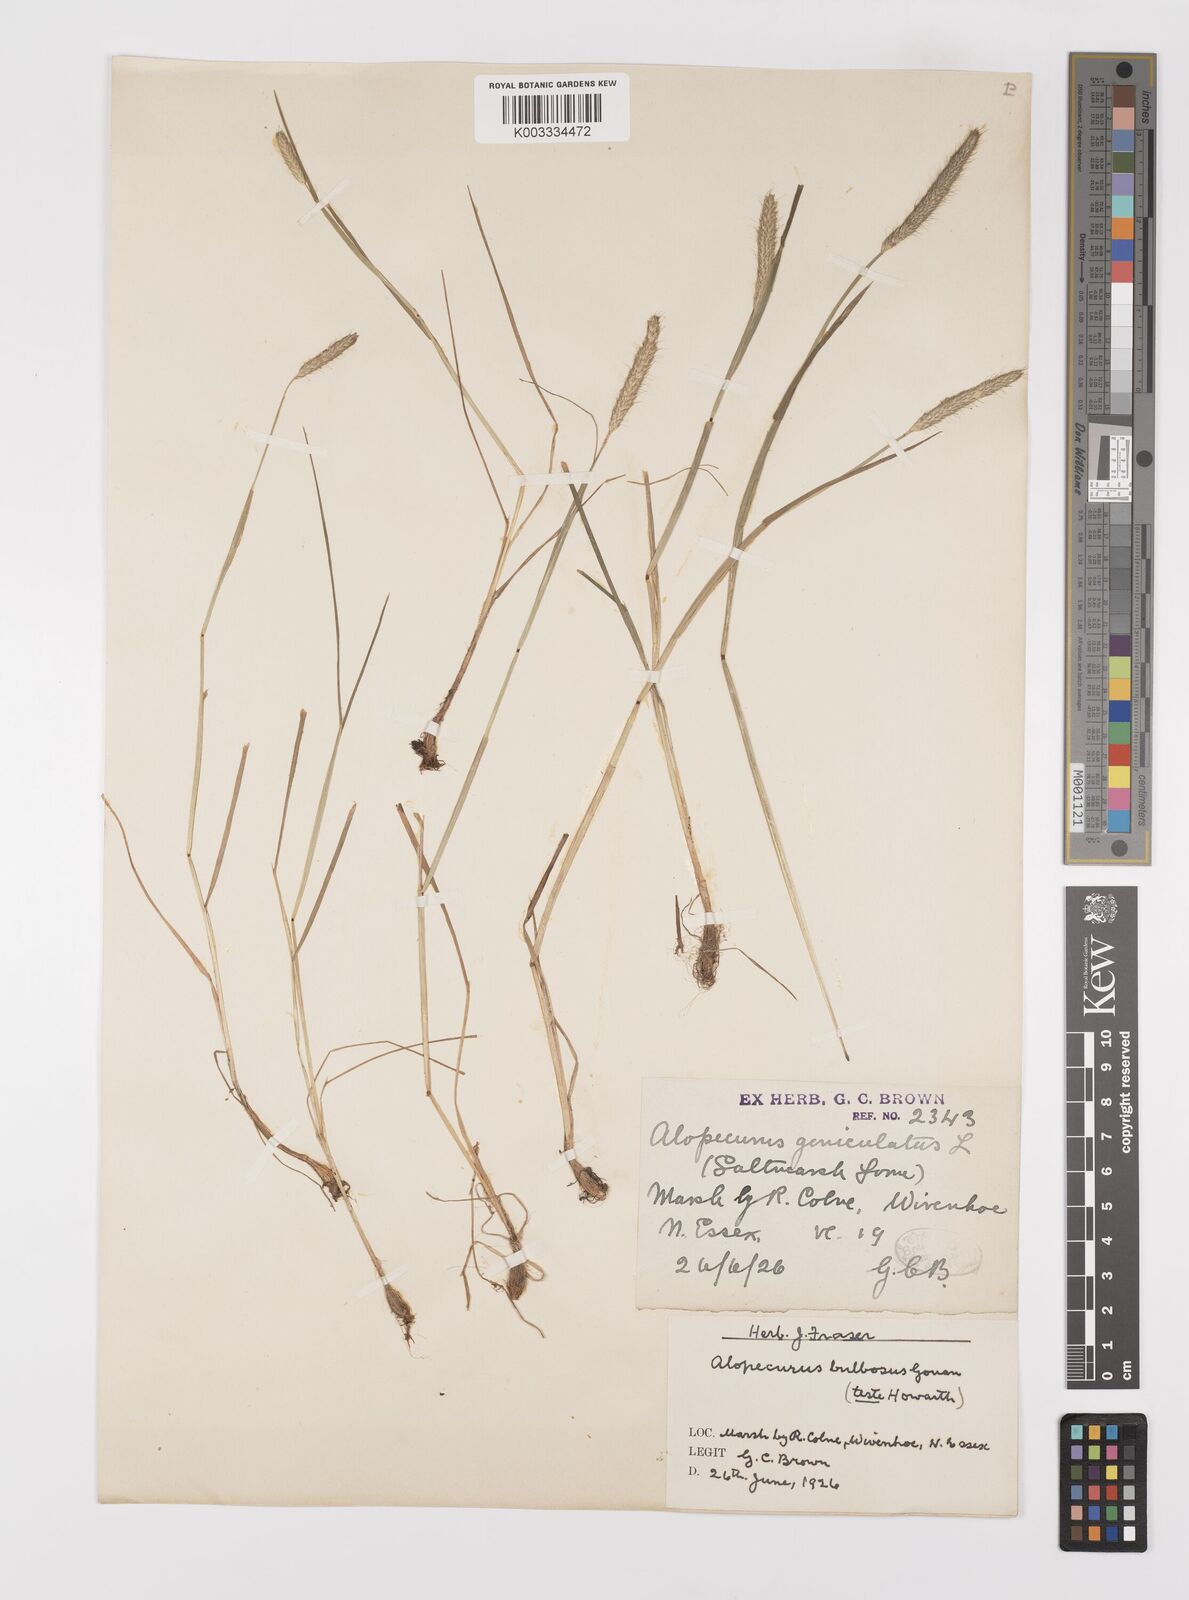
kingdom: Plantae
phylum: Tracheophyta
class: Liliopsida
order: Poales
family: Poaceae
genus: Alopecurus
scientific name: Alopecurus bulbosus
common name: Bulbous foxtail
